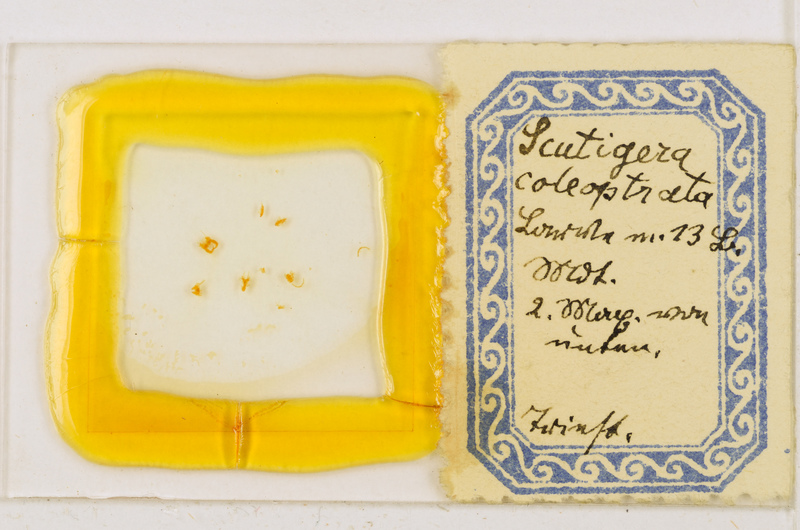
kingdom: Animalia
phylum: Arthropoda
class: Chilopoda
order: Scutigeromorpha
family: Scutigeridae
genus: Scutigera
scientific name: Scutigera coleoptrata
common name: House centipede
